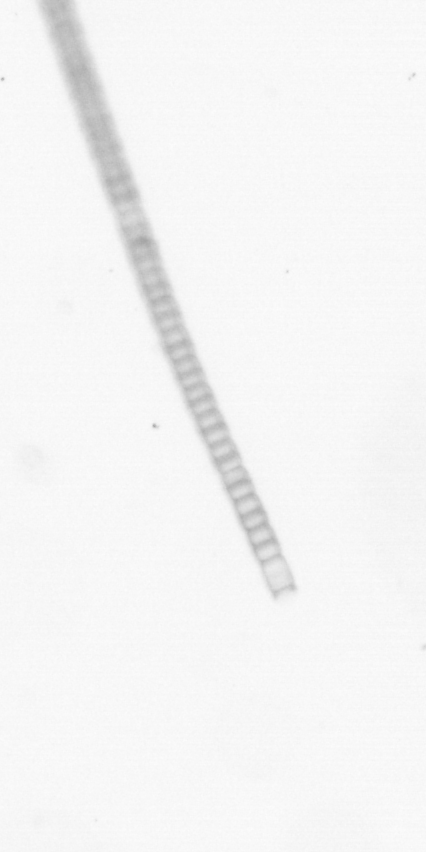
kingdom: Chromista
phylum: Ochrophyta
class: Bacillariophyceae
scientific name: Bacillariophyceae
